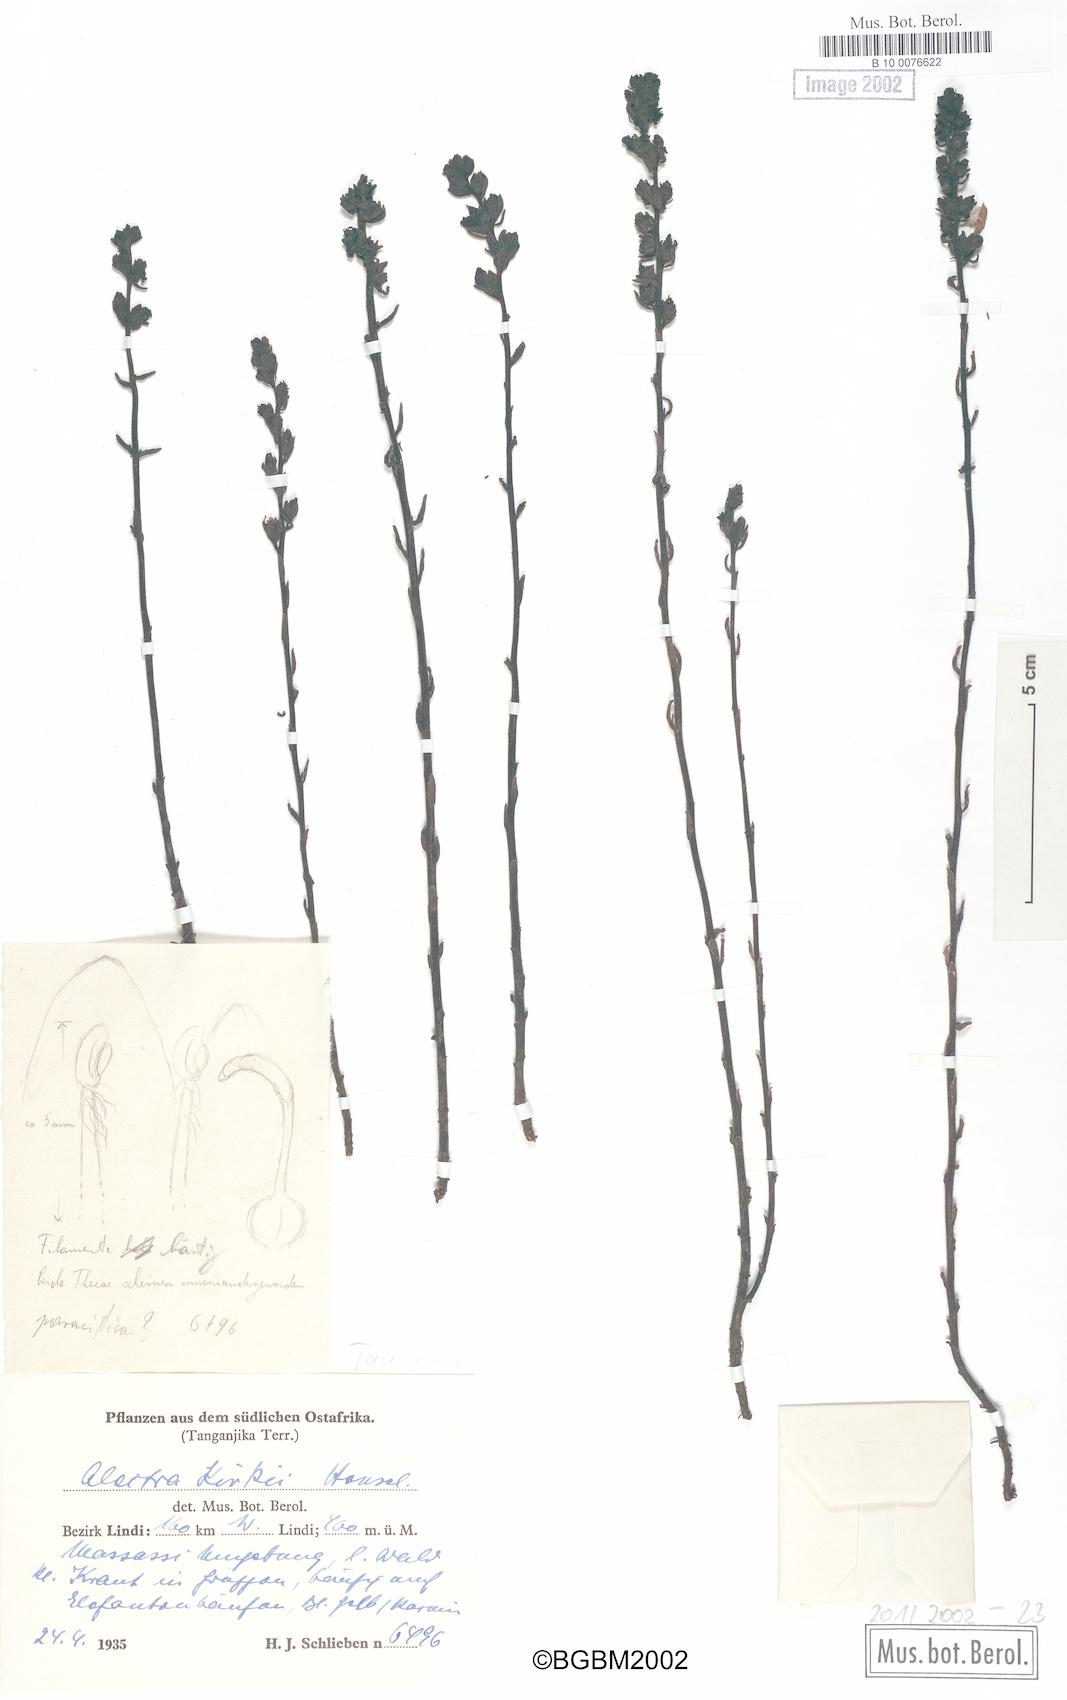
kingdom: Plantae
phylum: Tracheophyta
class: Magnoliopsida
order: Lamiales
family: Orobanchaceae
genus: Alectra
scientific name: Alectra orobanchoides
